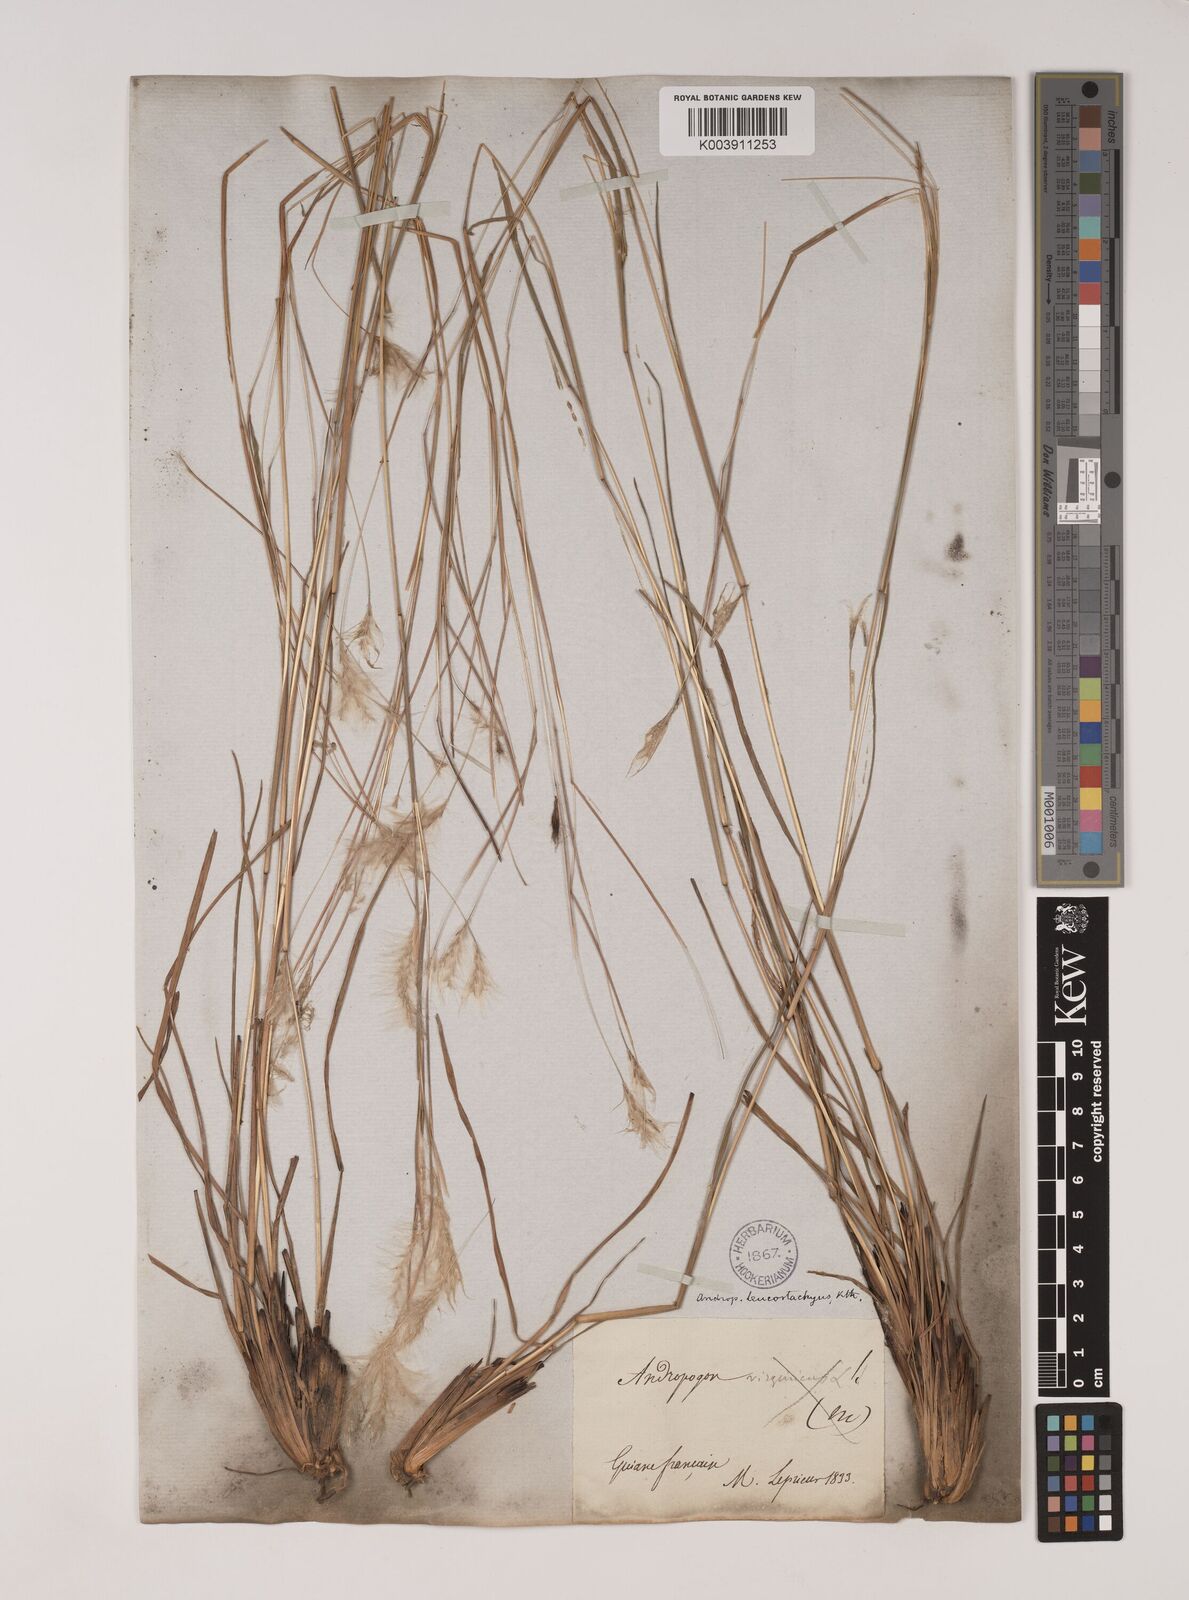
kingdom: Plantae
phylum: Tracheophyta
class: Liliopsida
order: Poales
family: Poaceae
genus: Andropogon
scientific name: Andropogon leucostachyus
